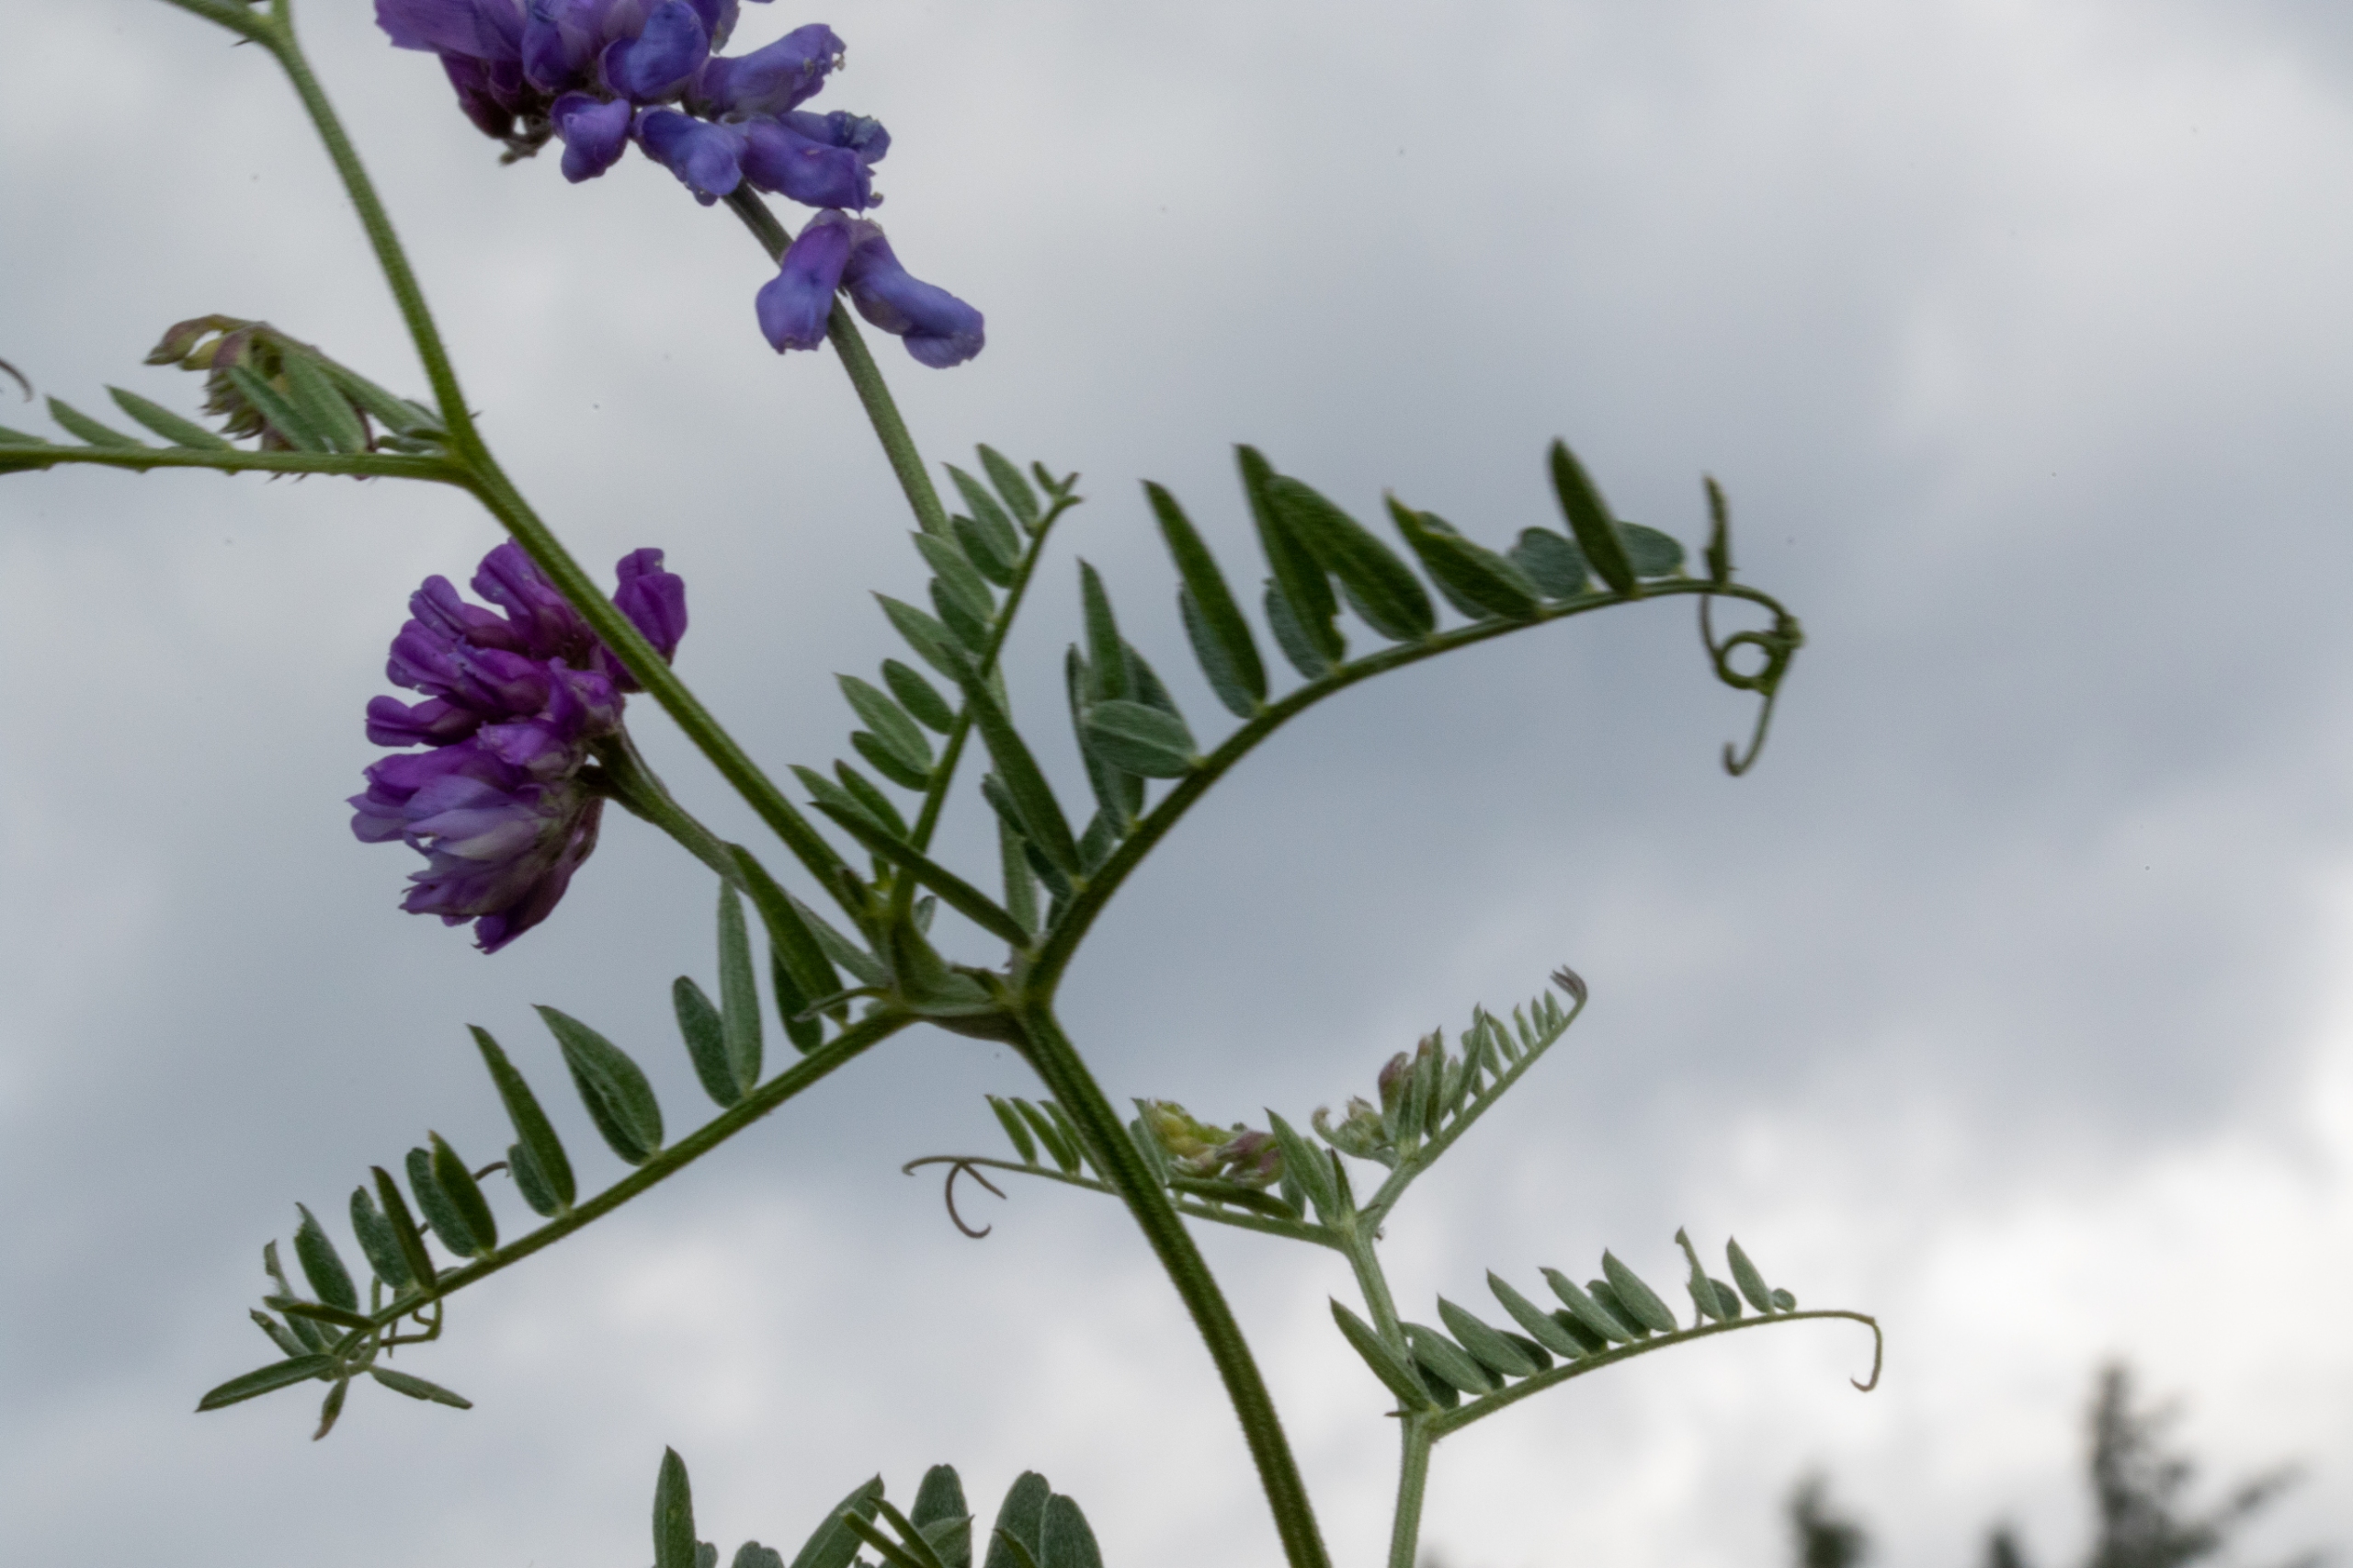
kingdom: Plantae
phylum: Tracheophyta
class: Magnoliopsida
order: Fabales
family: Fabaceae
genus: Vicia
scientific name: Vicia cracca
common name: Muse-vikke
